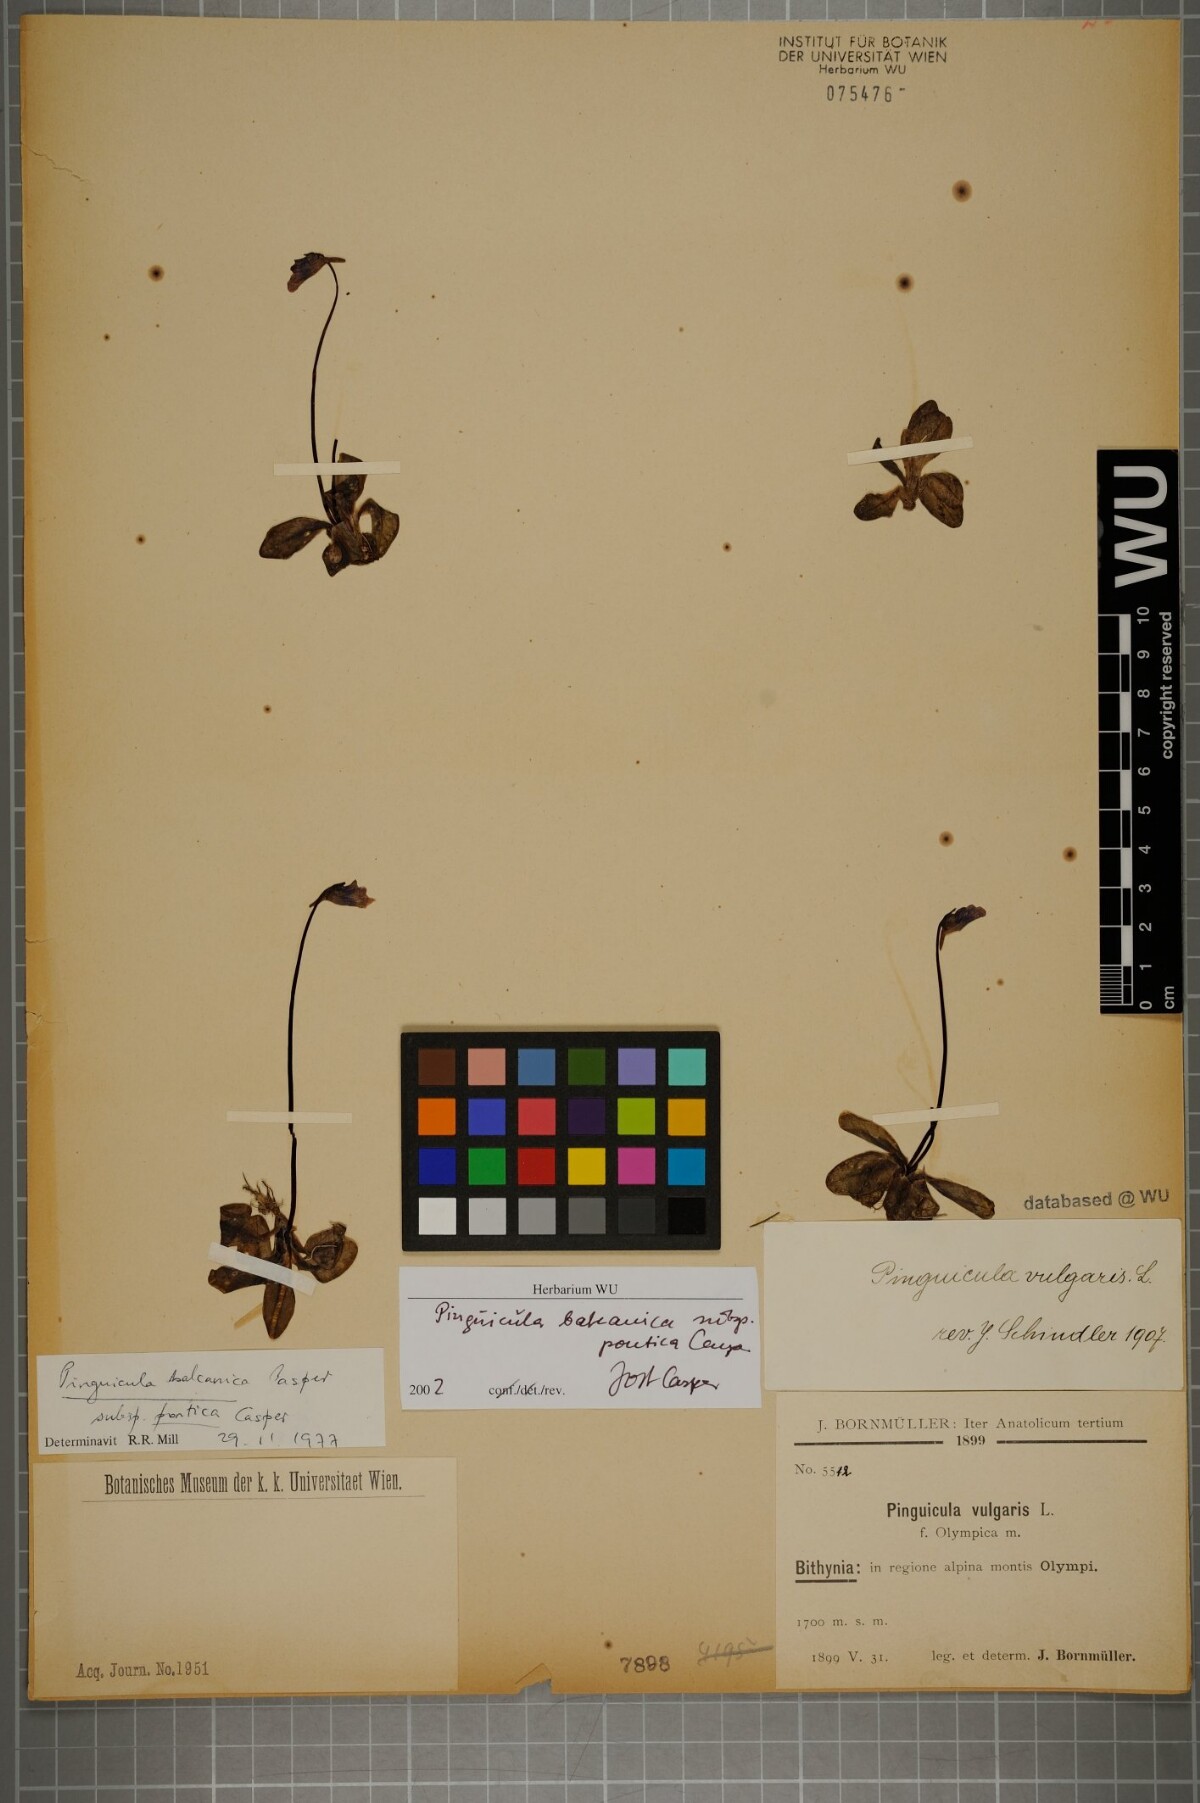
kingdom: Plantae
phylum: Tracheophyta
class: Magnoliopsida
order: Lamiales
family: Lentibulariaceae
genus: Pinguicula
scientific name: Pinguicula balcanica
